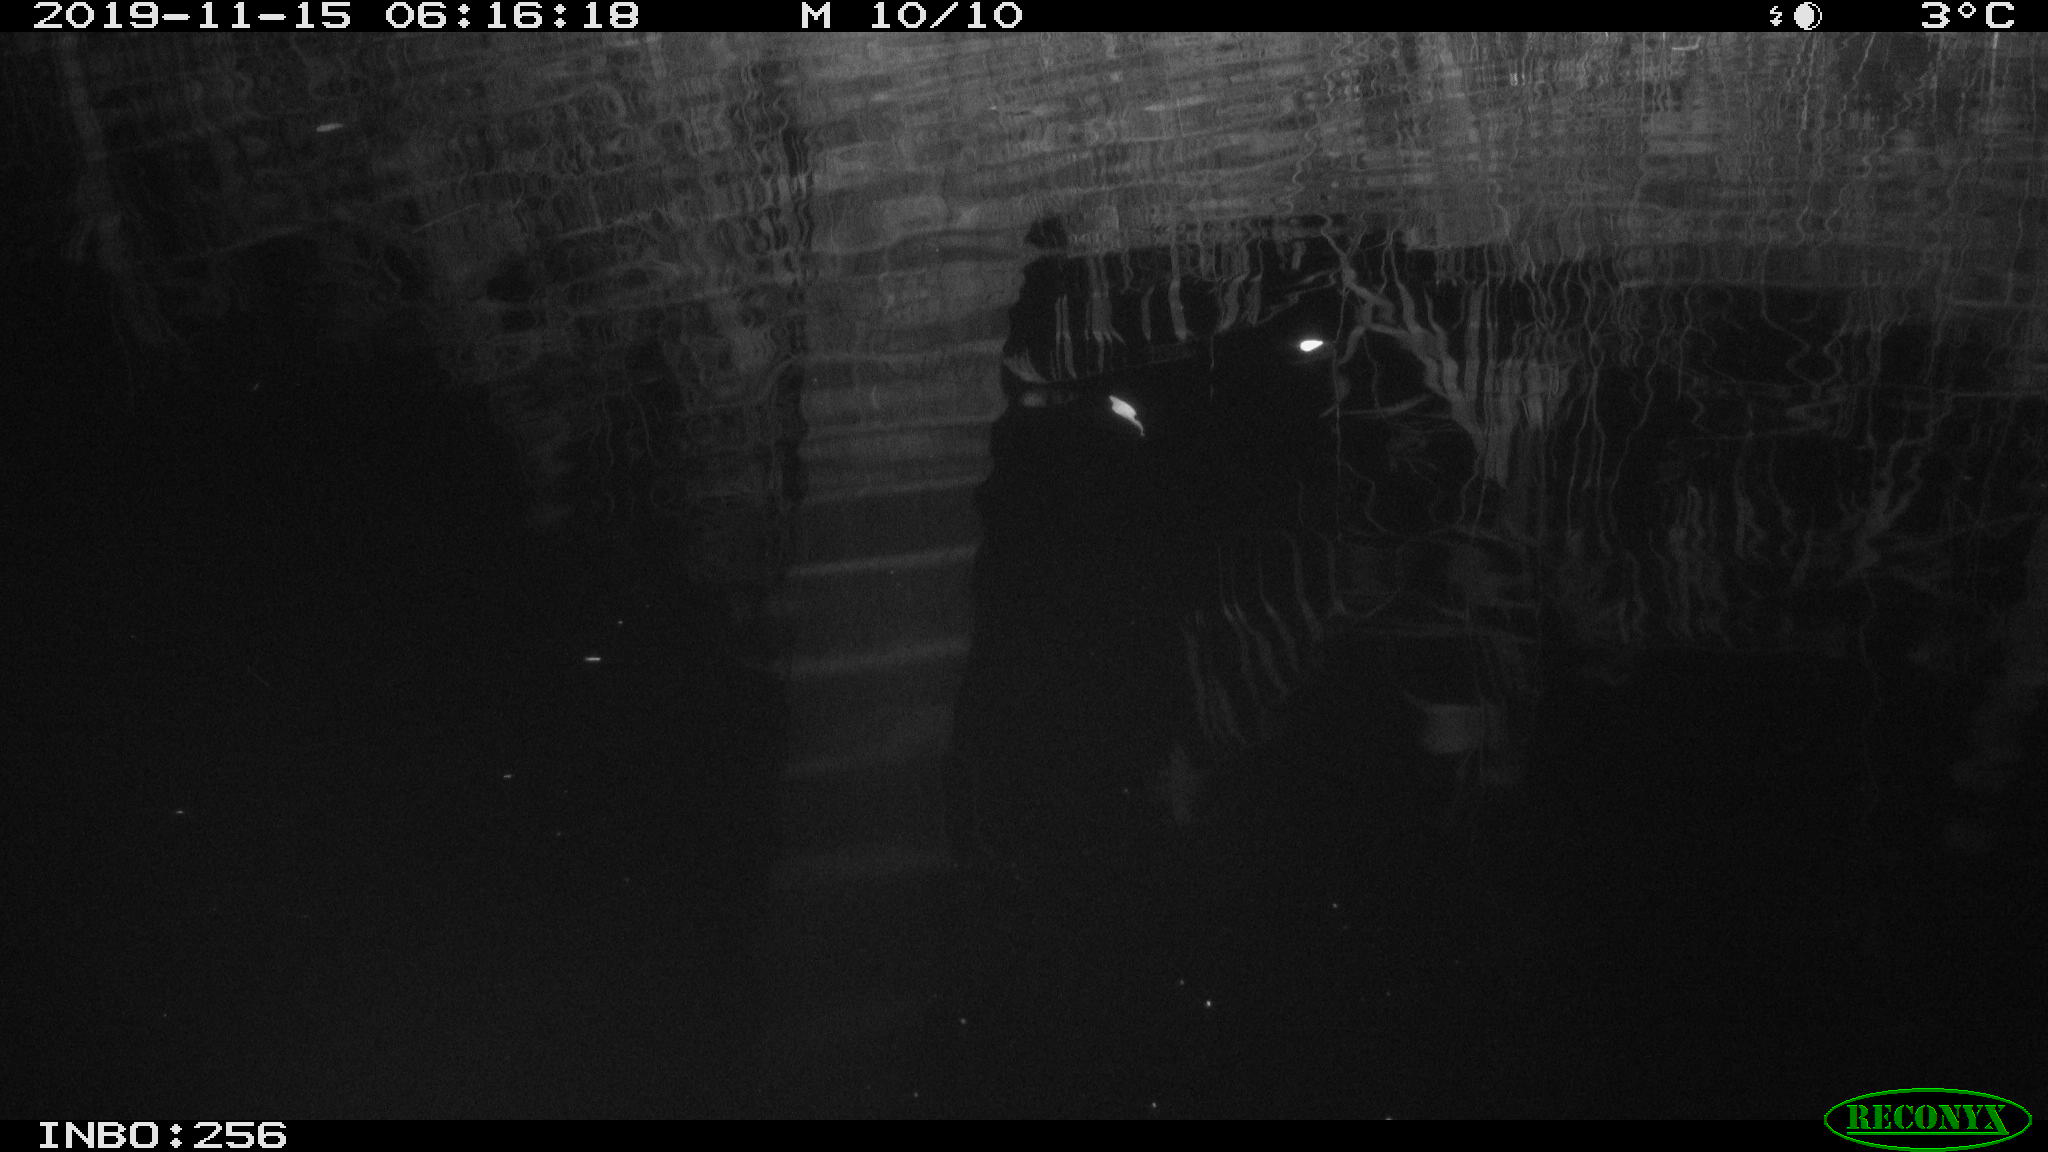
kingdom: Animalia
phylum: Chordata
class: Mammalia
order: Rodentia
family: Muridae
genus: Rattus
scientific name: Rattus norvegicus
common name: Brown rat
